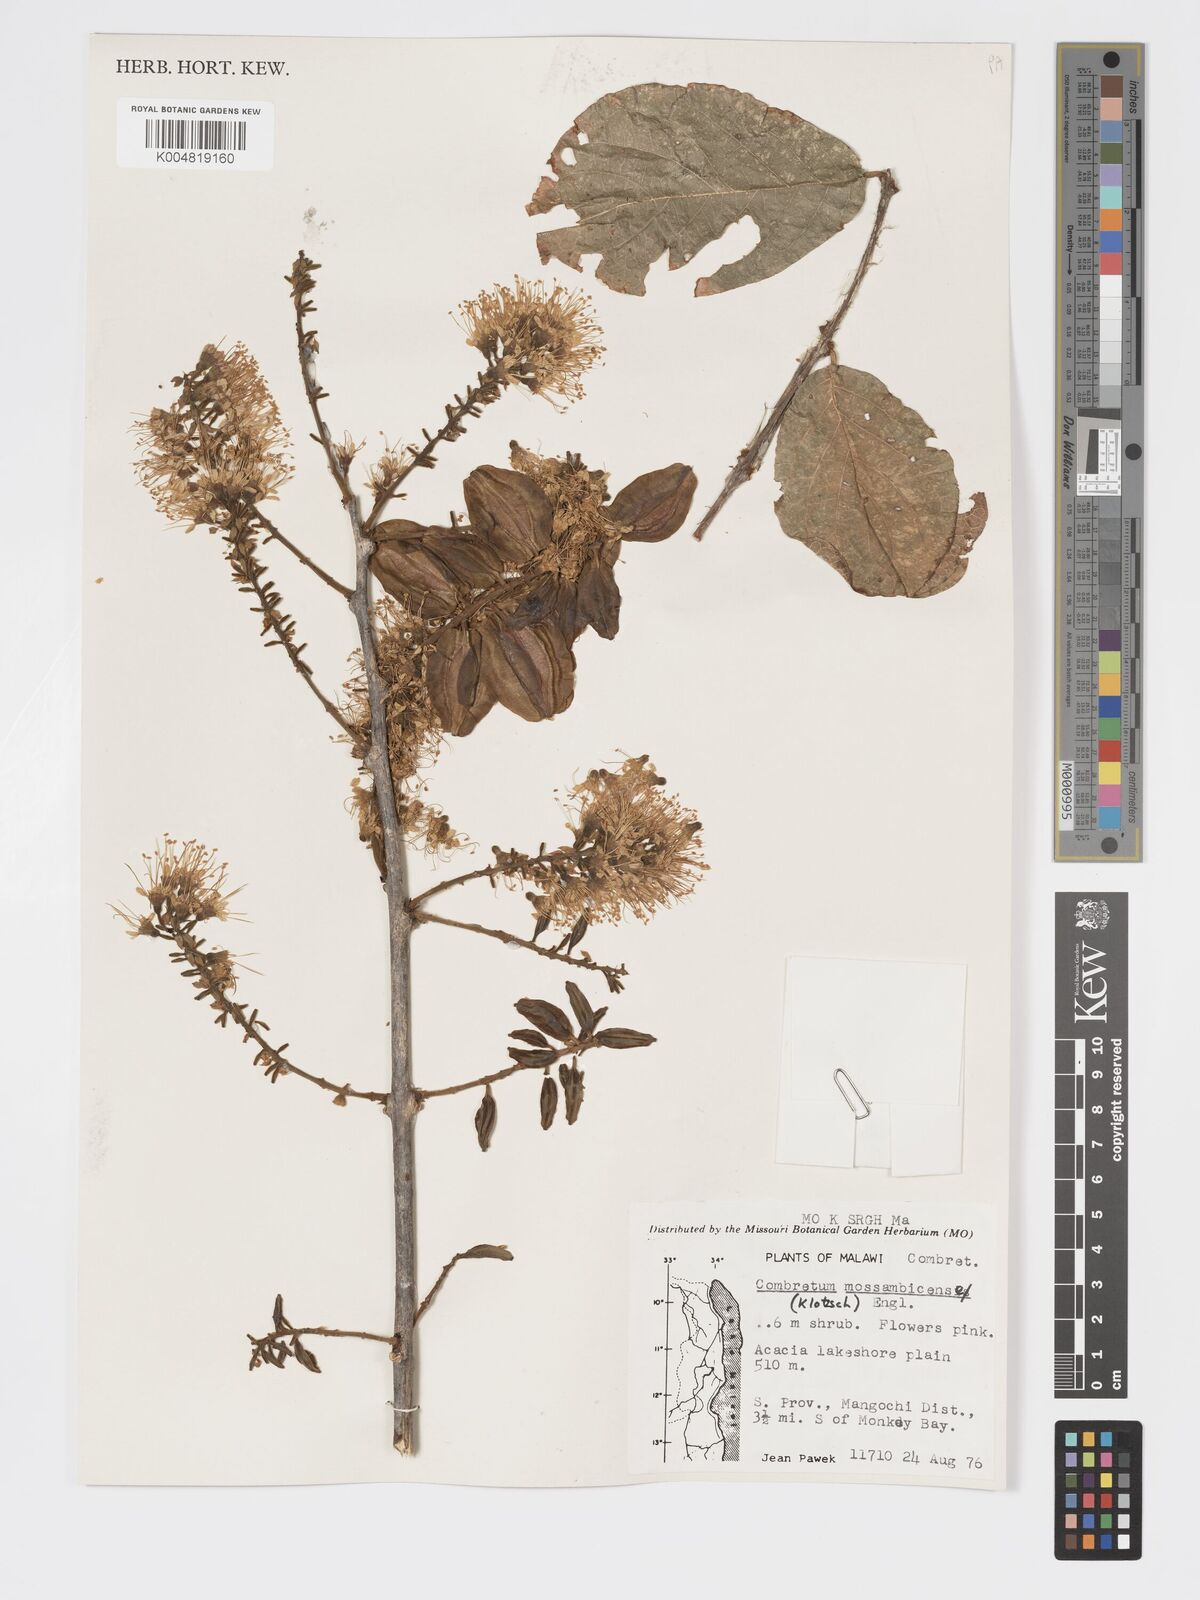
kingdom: Plantae
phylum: Tracheophyta
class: Magnoliopsida
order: Myrtales
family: Combretaceae
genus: Combretum
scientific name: Combretum zeyheri
